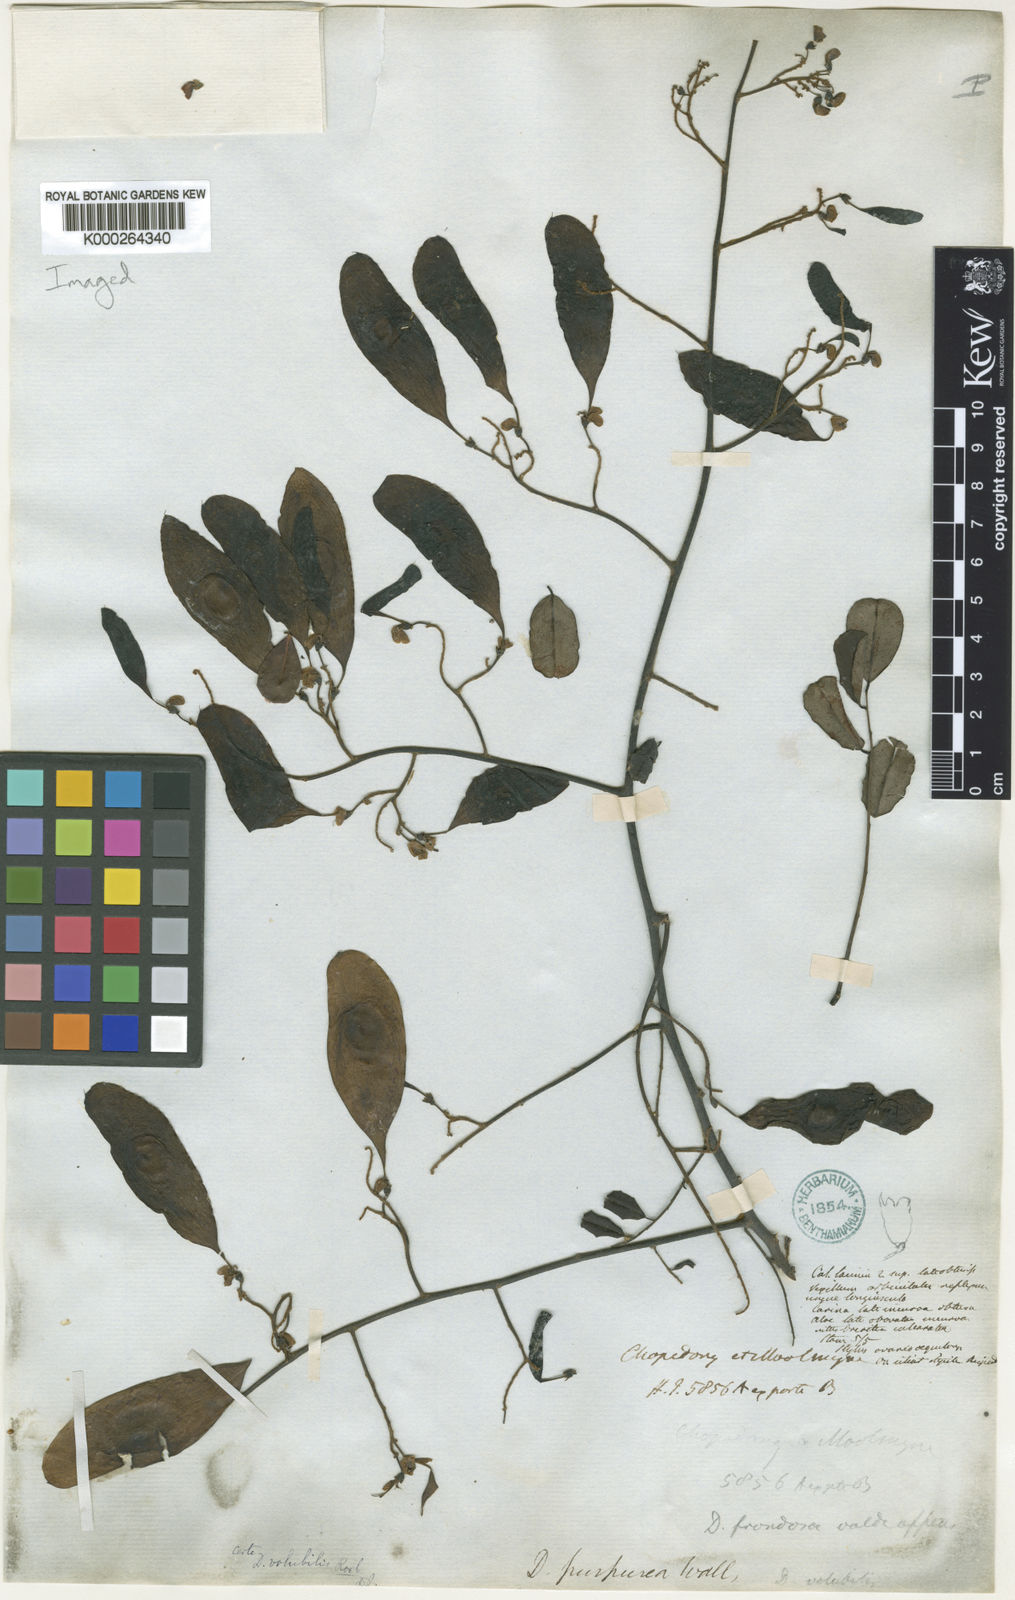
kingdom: Plantae
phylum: Tracheophyta
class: Magnoliopsida
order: Fabales
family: Fabaceae
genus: Dalbergia
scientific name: Dalbergia volubilis
